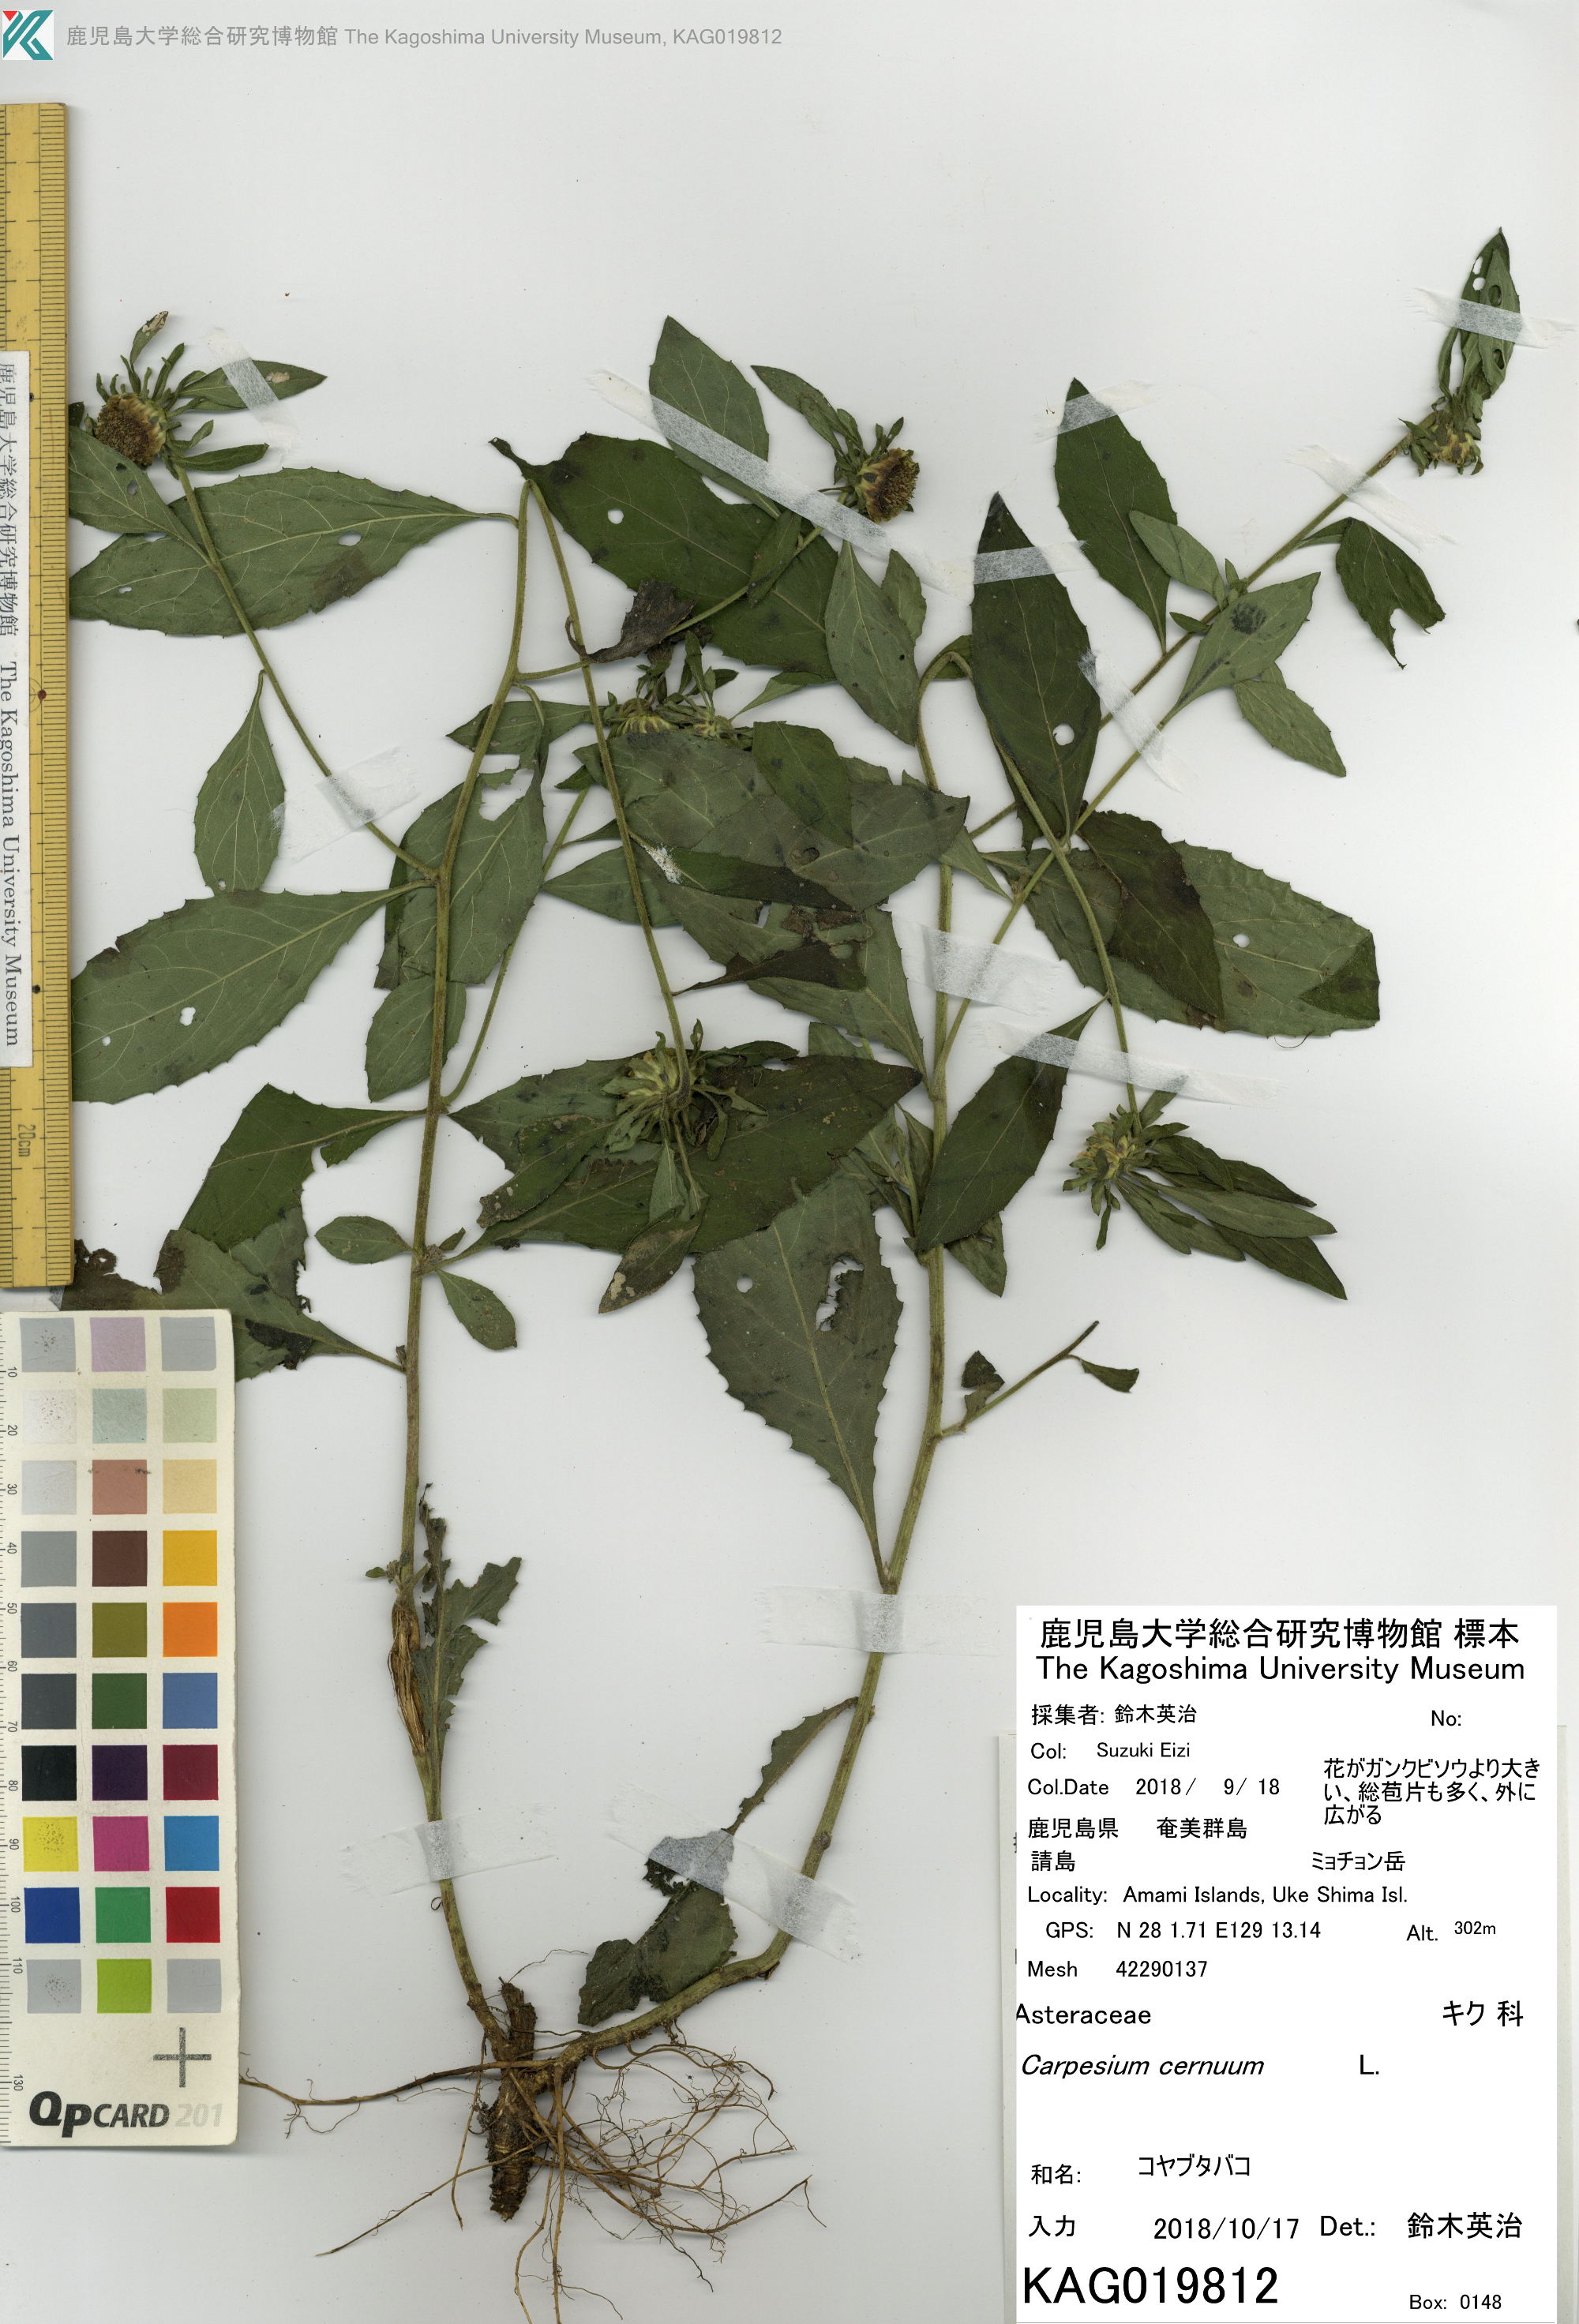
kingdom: Plantae
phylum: Tracheophyta
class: Magnoliopsida
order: Asterales
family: Asteraceae
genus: Carpesium
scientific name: Carpesium cernuum
